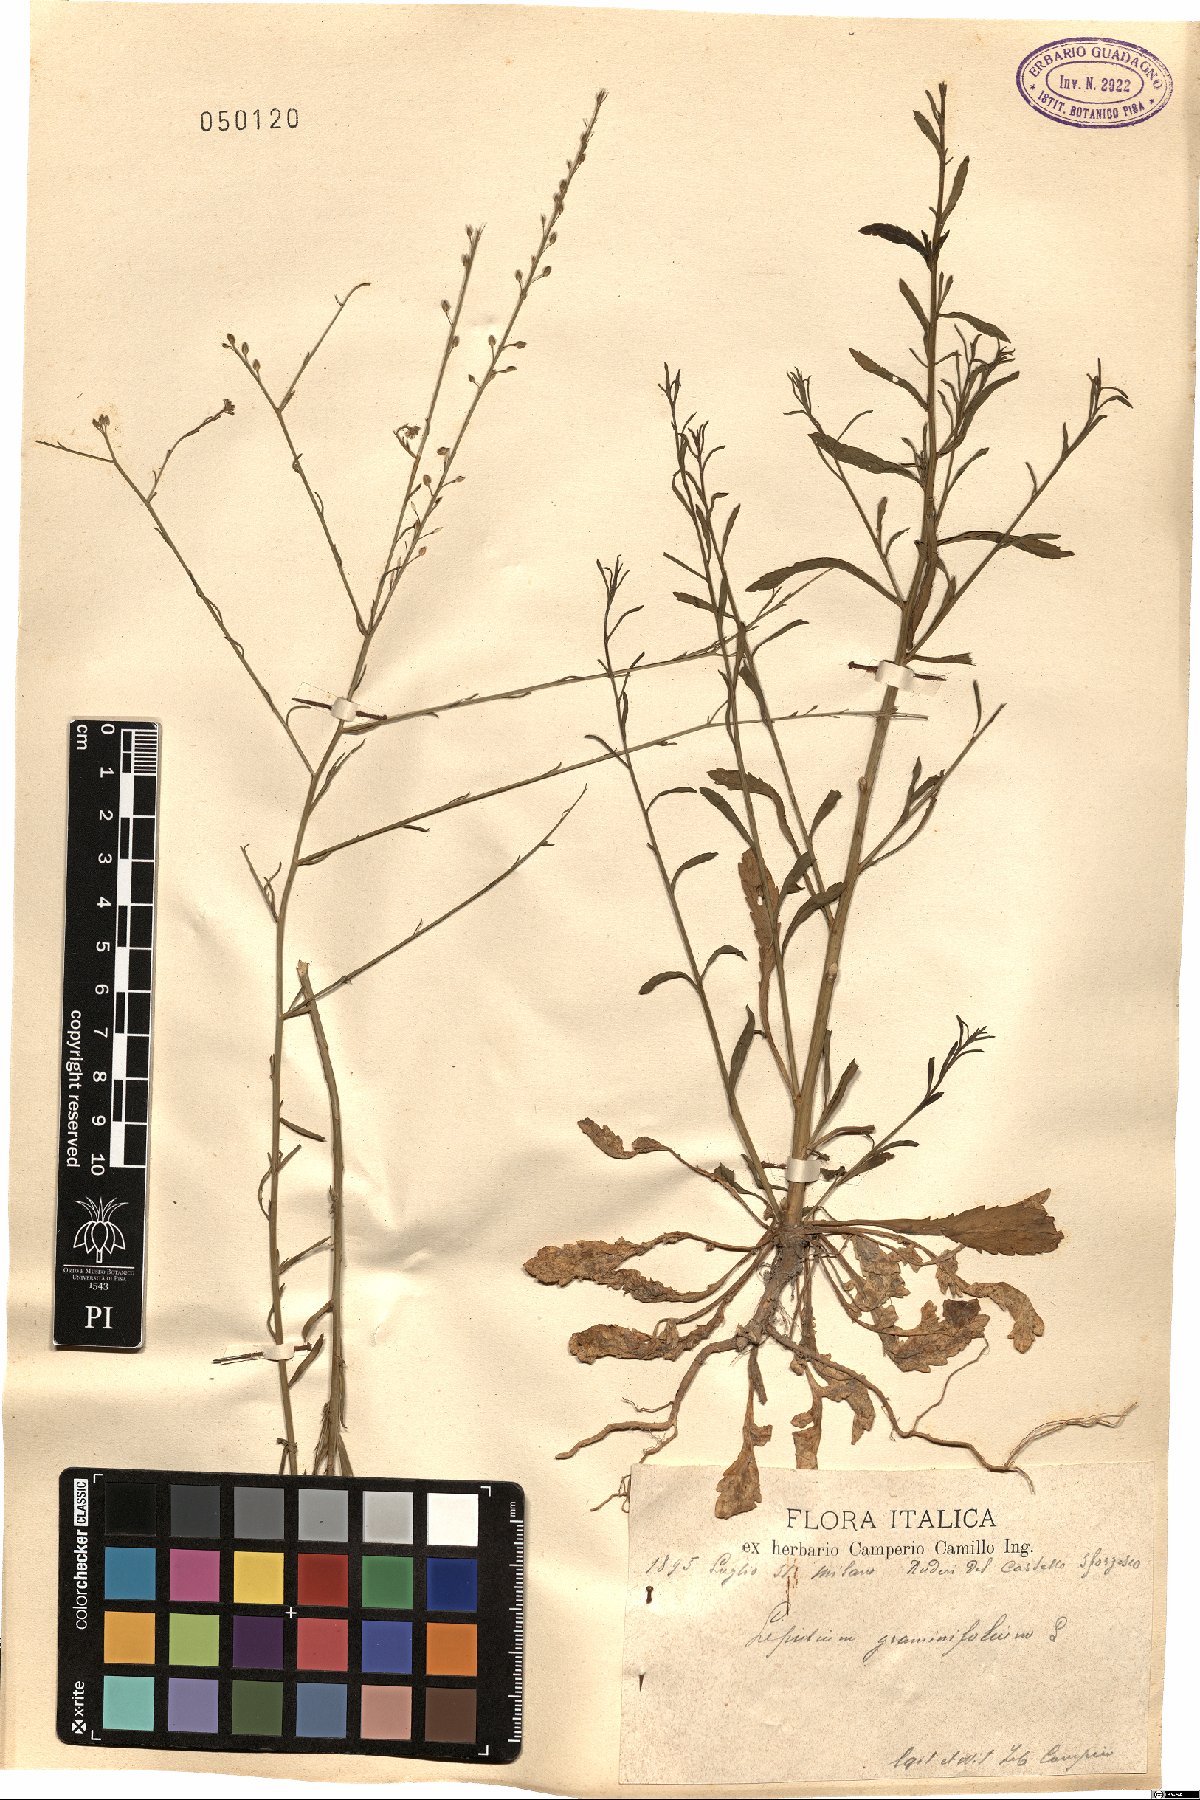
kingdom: Plantae
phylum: Tracheophyta
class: Magnoliopsida
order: Brassicales
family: Brassicaceae
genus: Lepidium
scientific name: Lepidium graminifolium
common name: Tall pepperwort
